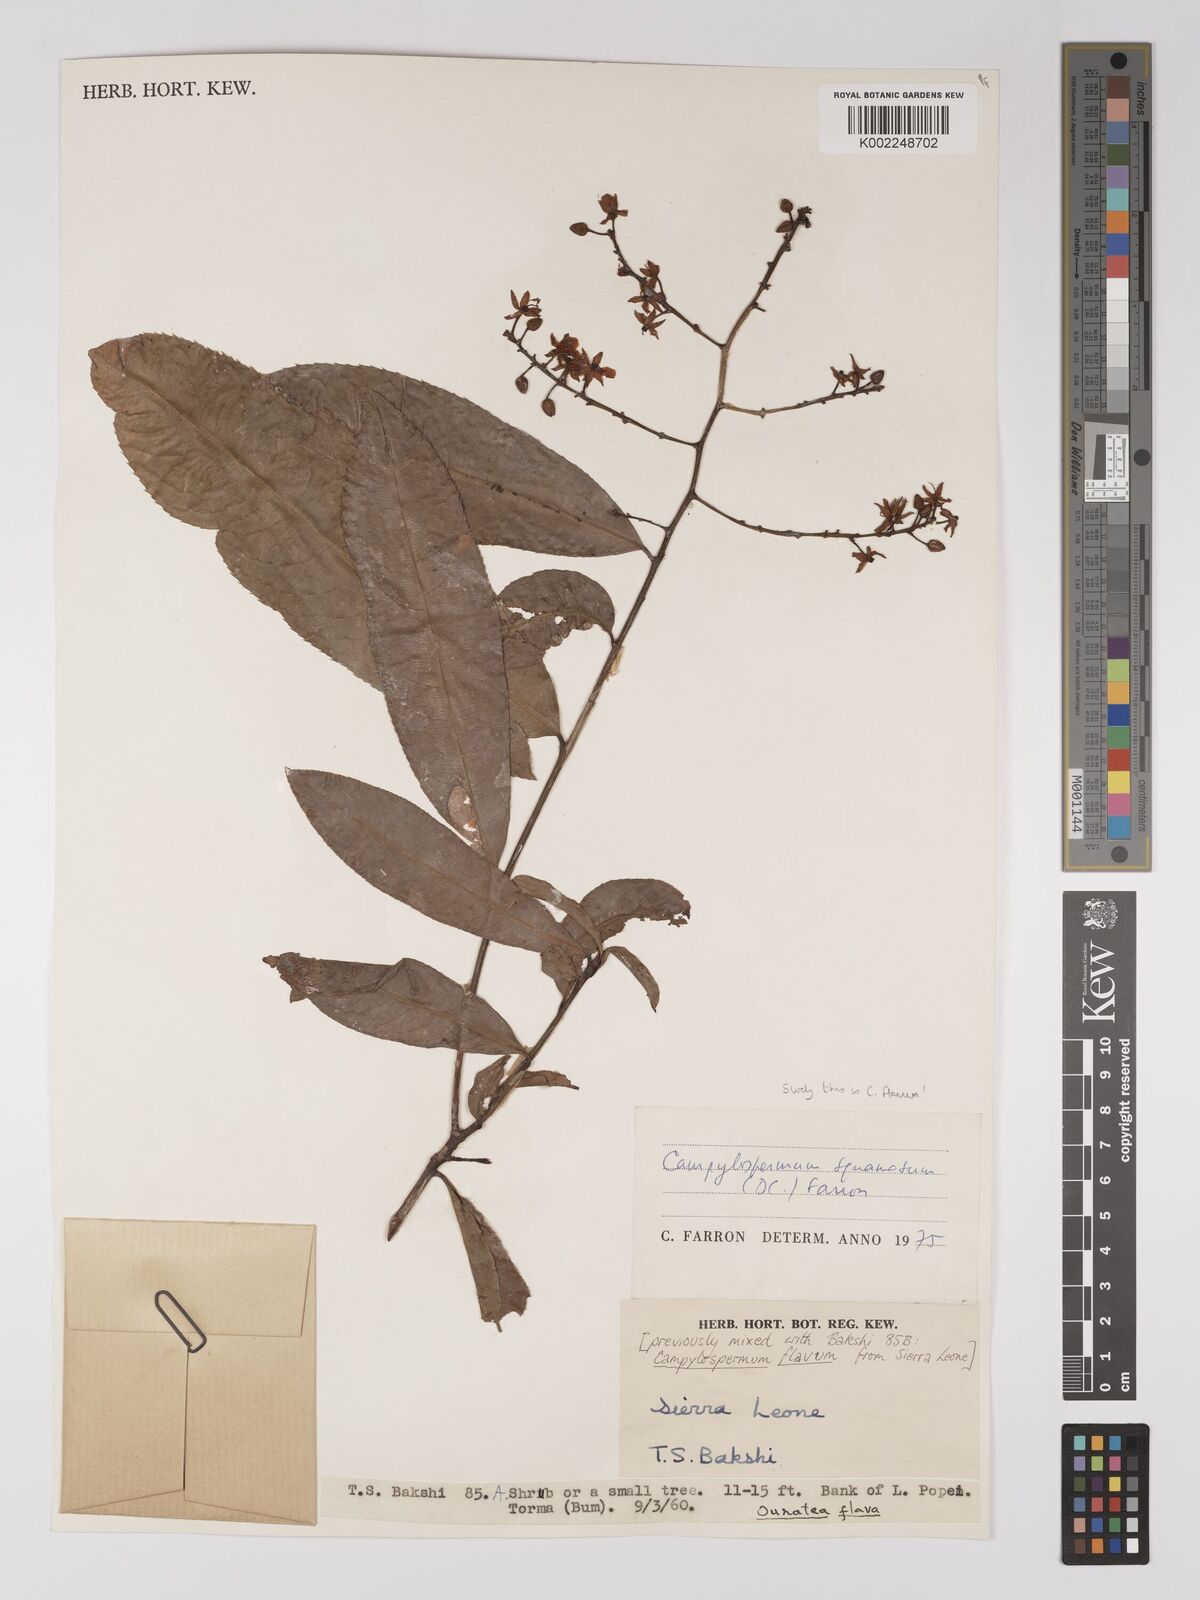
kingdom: Plantae
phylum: Tracheophyta
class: Magnoliopsida
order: Malpighiales
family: Ochnaceae
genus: Campylospermum
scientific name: Campylospermum flavum
